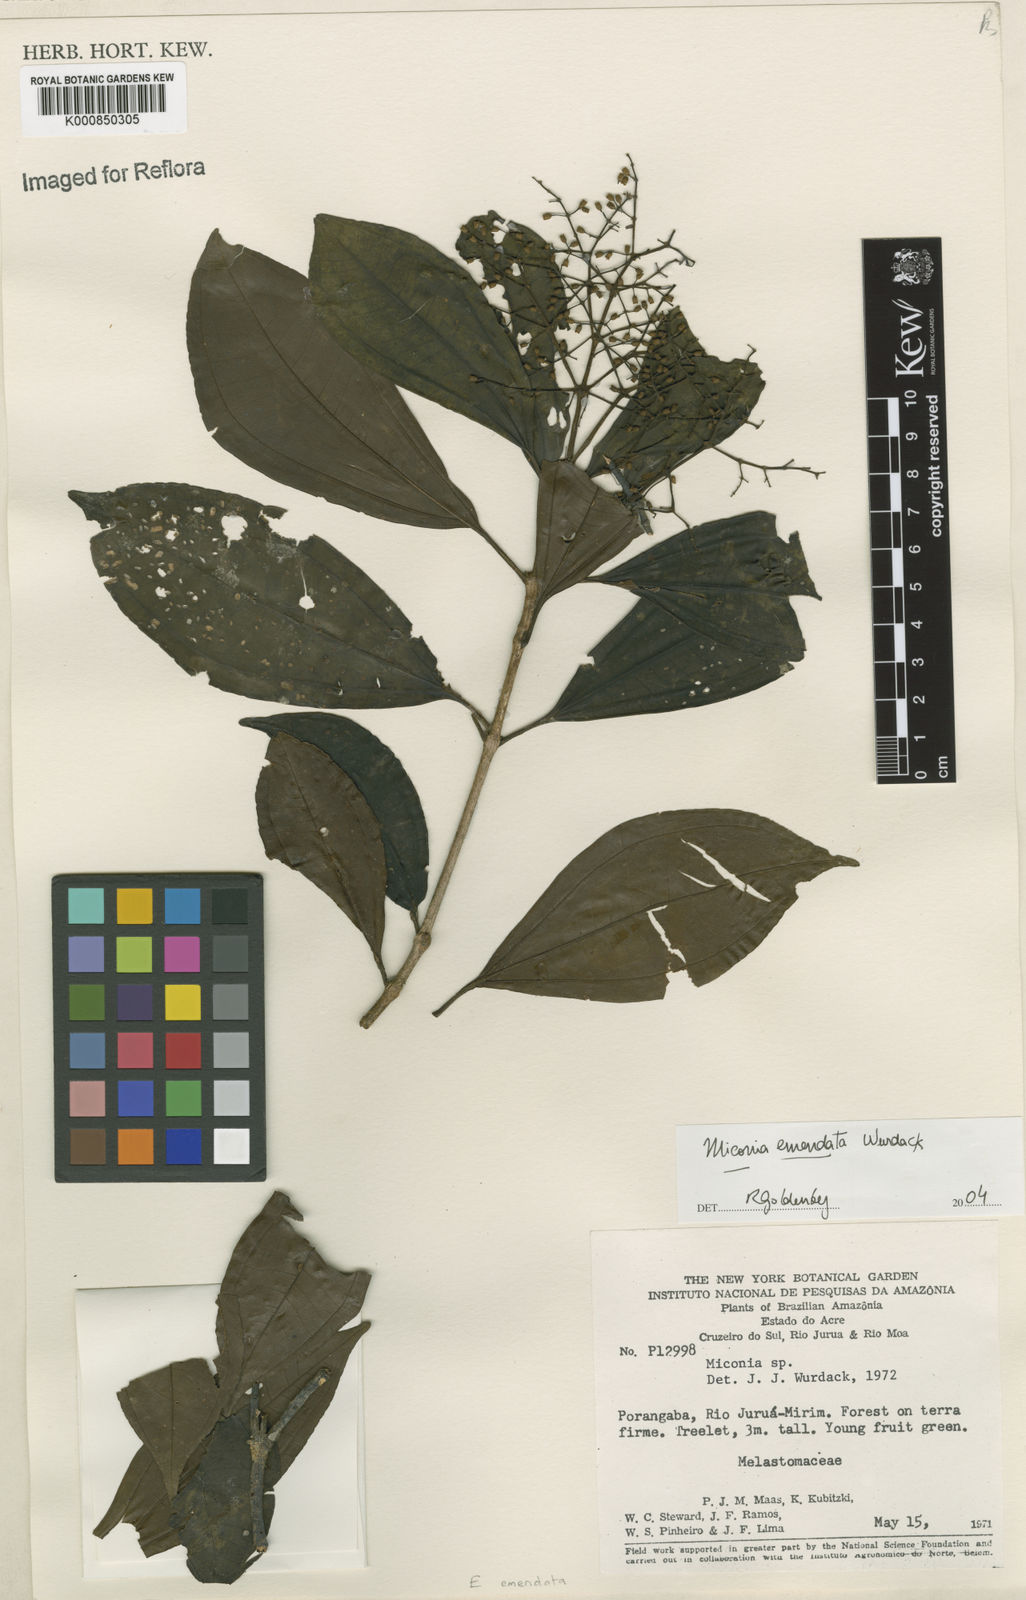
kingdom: Plantae
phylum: Tracheophyta
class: Magnoliopsida
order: Myrtales
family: Melastomataceae
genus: Miconia
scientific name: Miconia emendata
